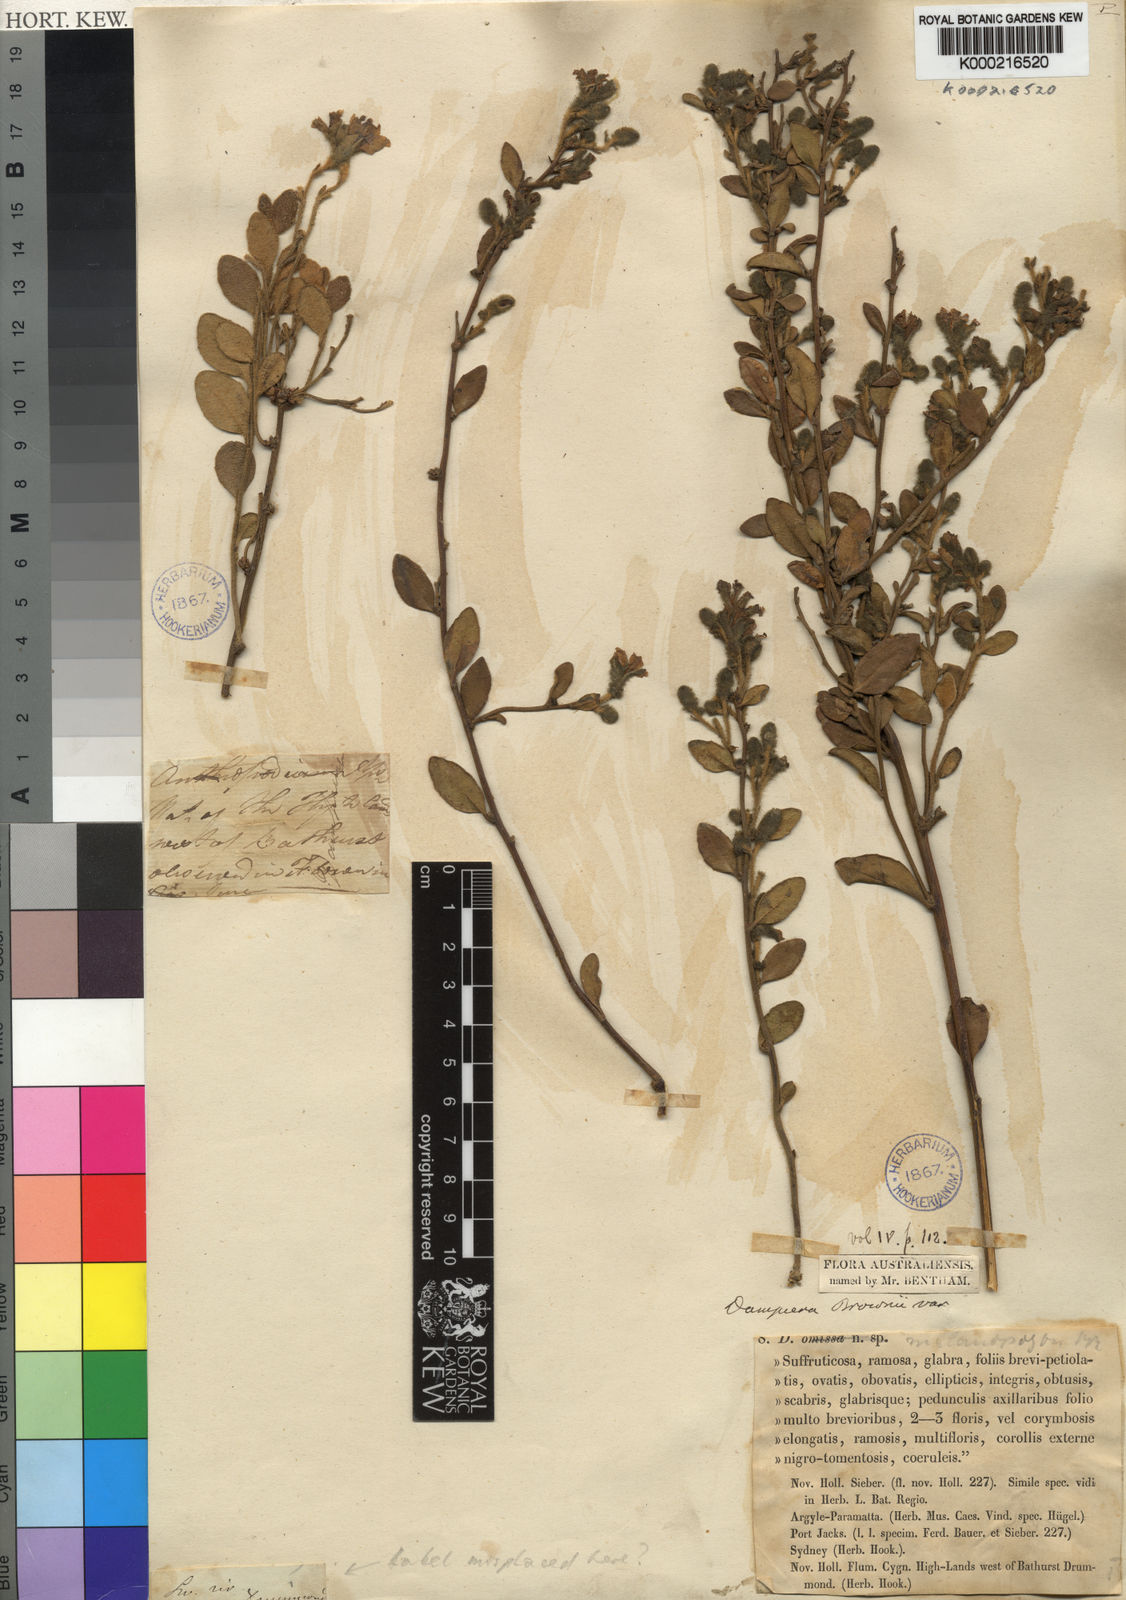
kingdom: Plantae
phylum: Tracheophyta
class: Magnoliopsida
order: Asterales
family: Goodeniaceae
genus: Dampiera
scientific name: Dampiera purpurea
